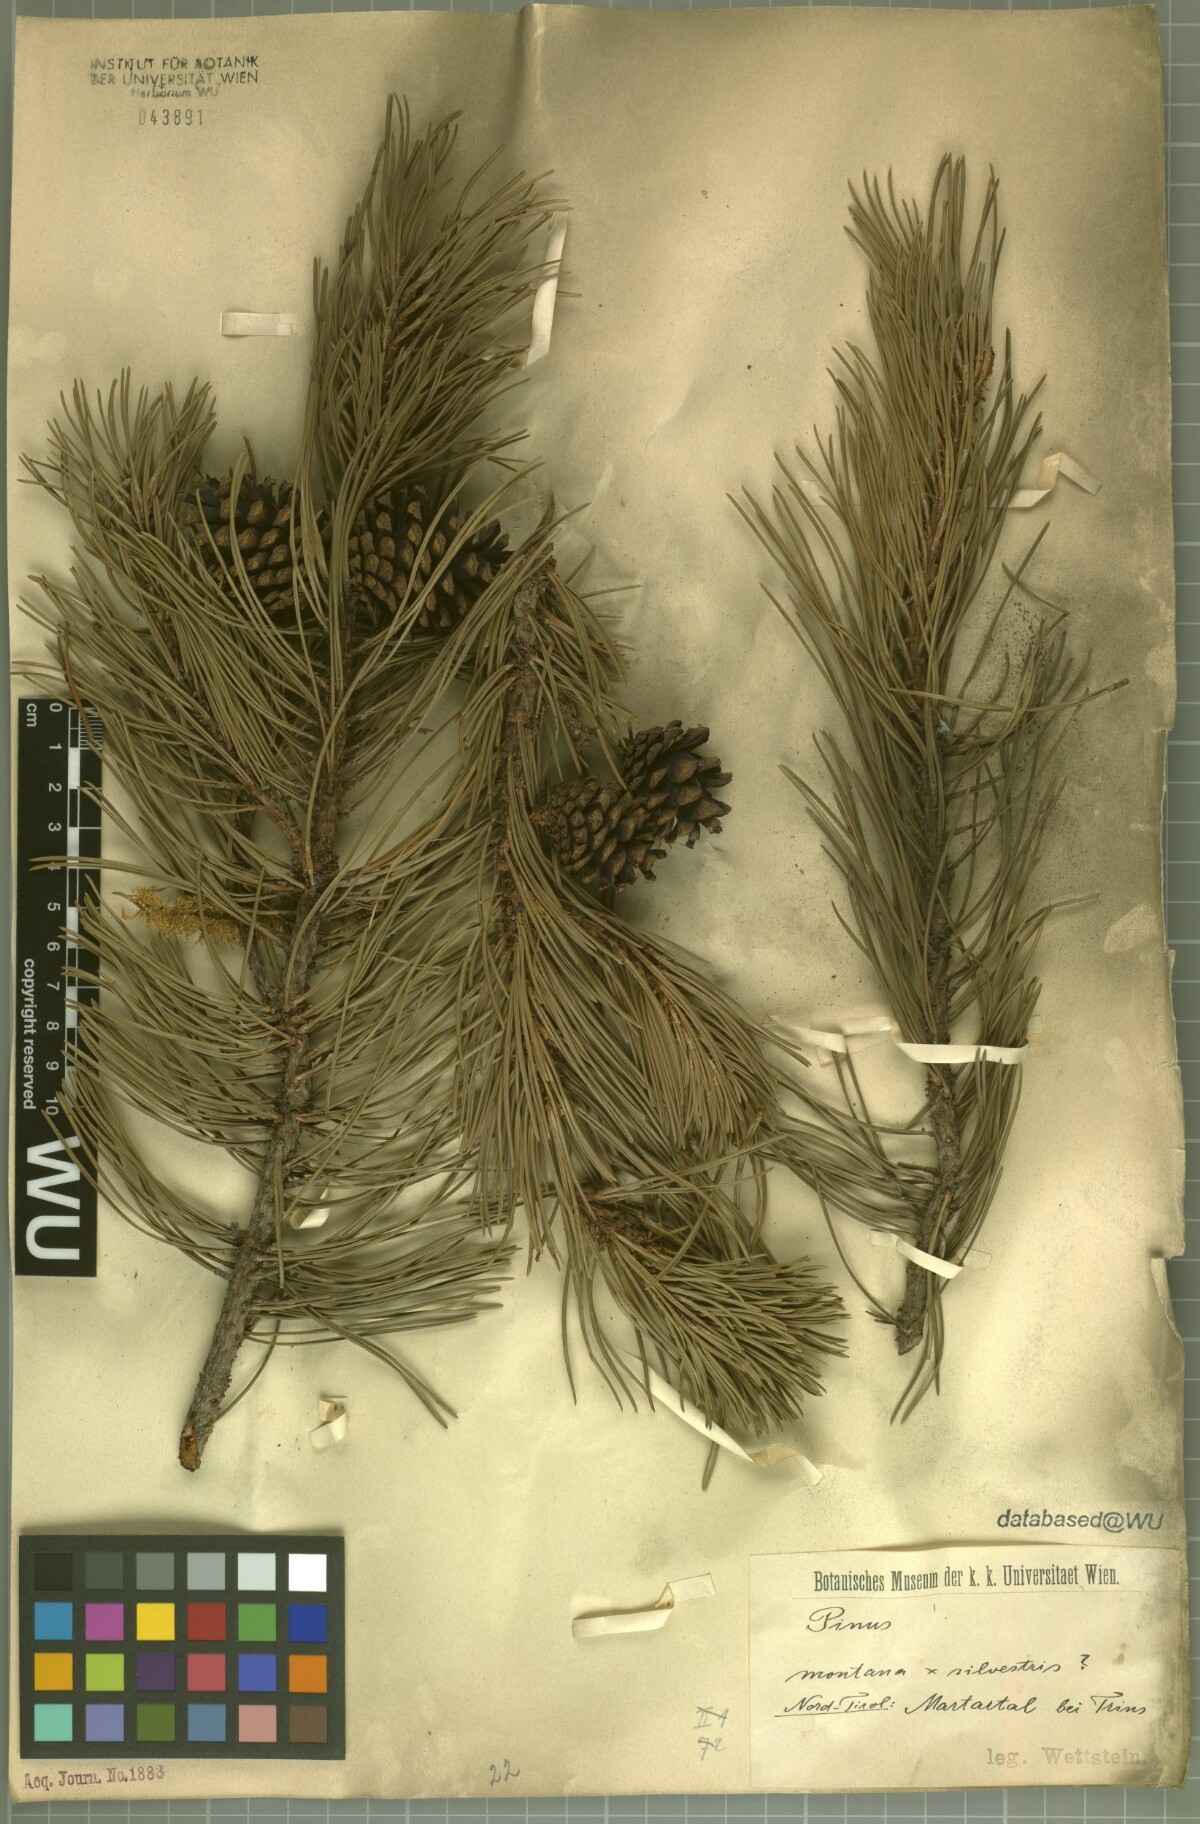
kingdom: Plantae
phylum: Tracheophyta
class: Pinopsida
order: Pinales
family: Pinaceae
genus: Pinus
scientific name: Pinus
